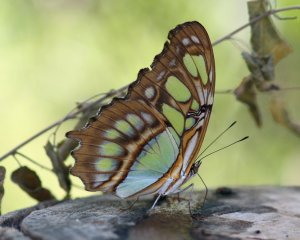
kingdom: Animalia
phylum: Arthropoda
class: Insecta
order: Lepidoptera
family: Nymphalidae
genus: Siproeta
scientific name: Siproeta stelenes
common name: Malachite
